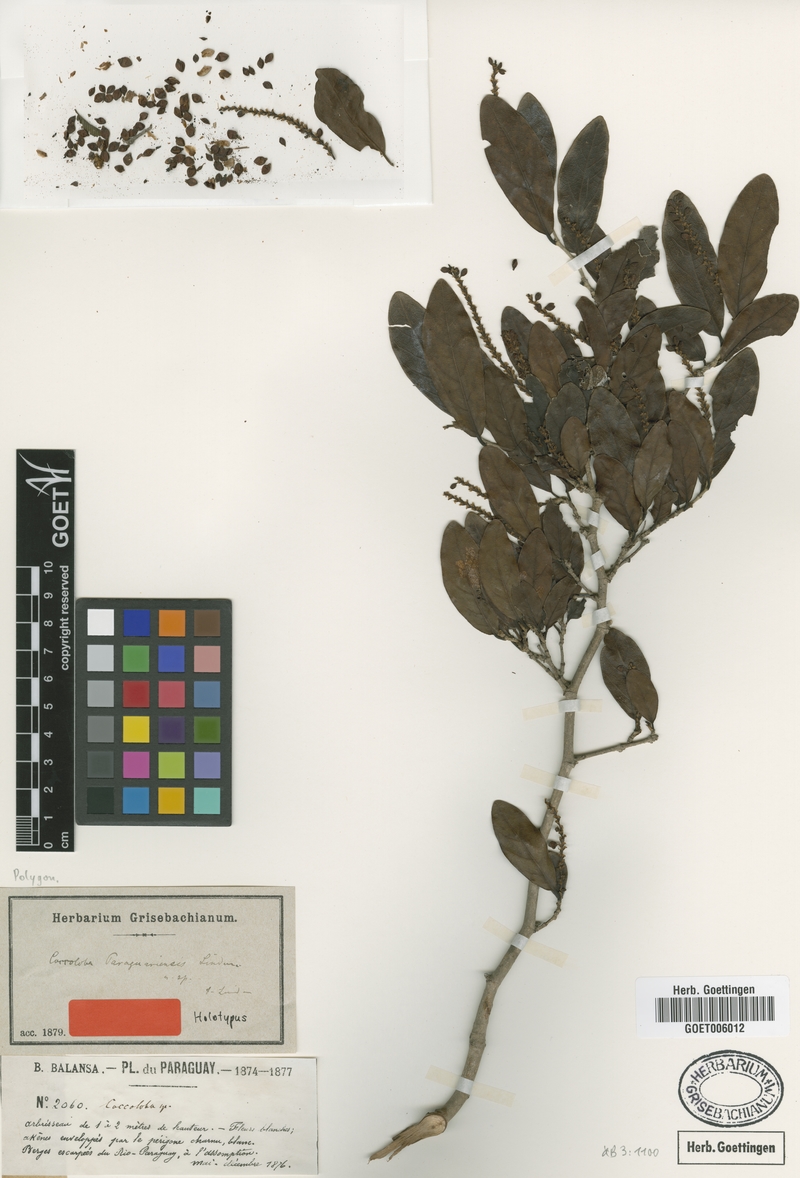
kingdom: Plantae
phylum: Tracheophyta
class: Magnoliopsida
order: Caryophyllales
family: Polygonaceae
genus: Coccoloba
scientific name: Coccoloba paraguariensis
